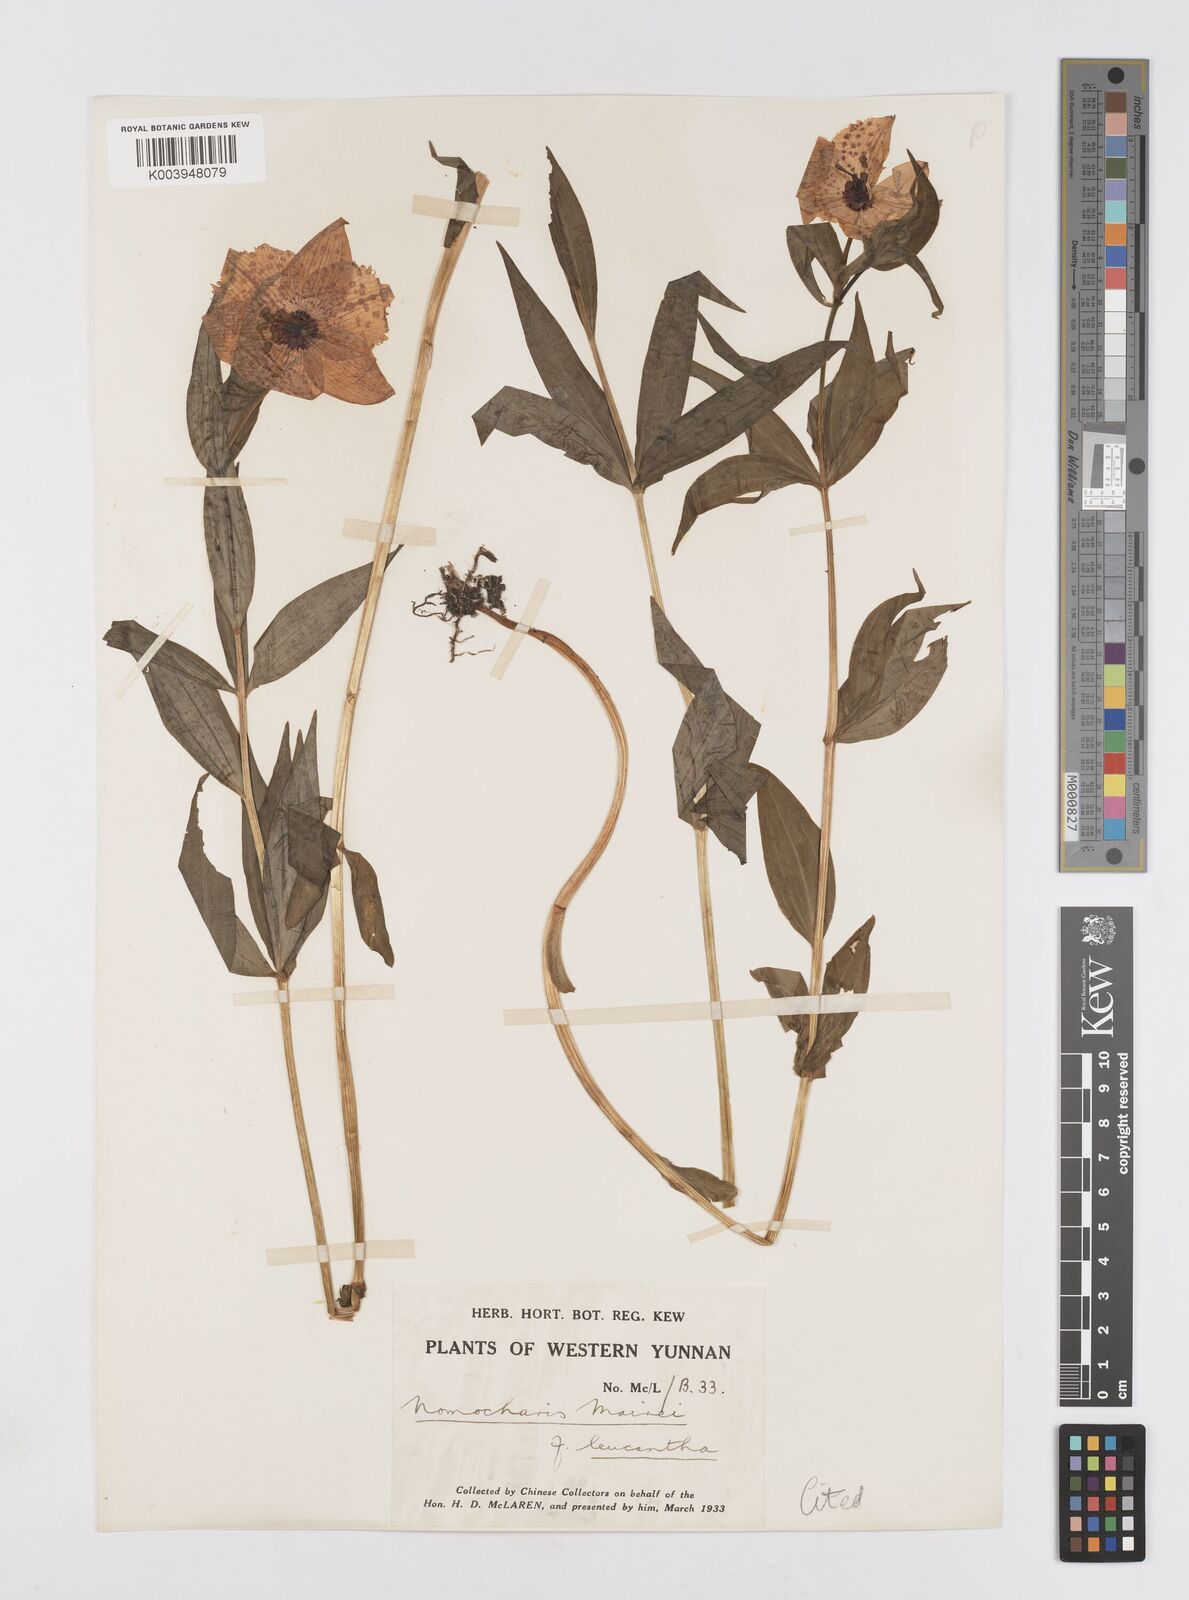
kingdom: Plantae
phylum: Tracheophyta
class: Liliopsida
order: Liliales
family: Liliaceae
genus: Lilium
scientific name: Lilium pardanthinum
